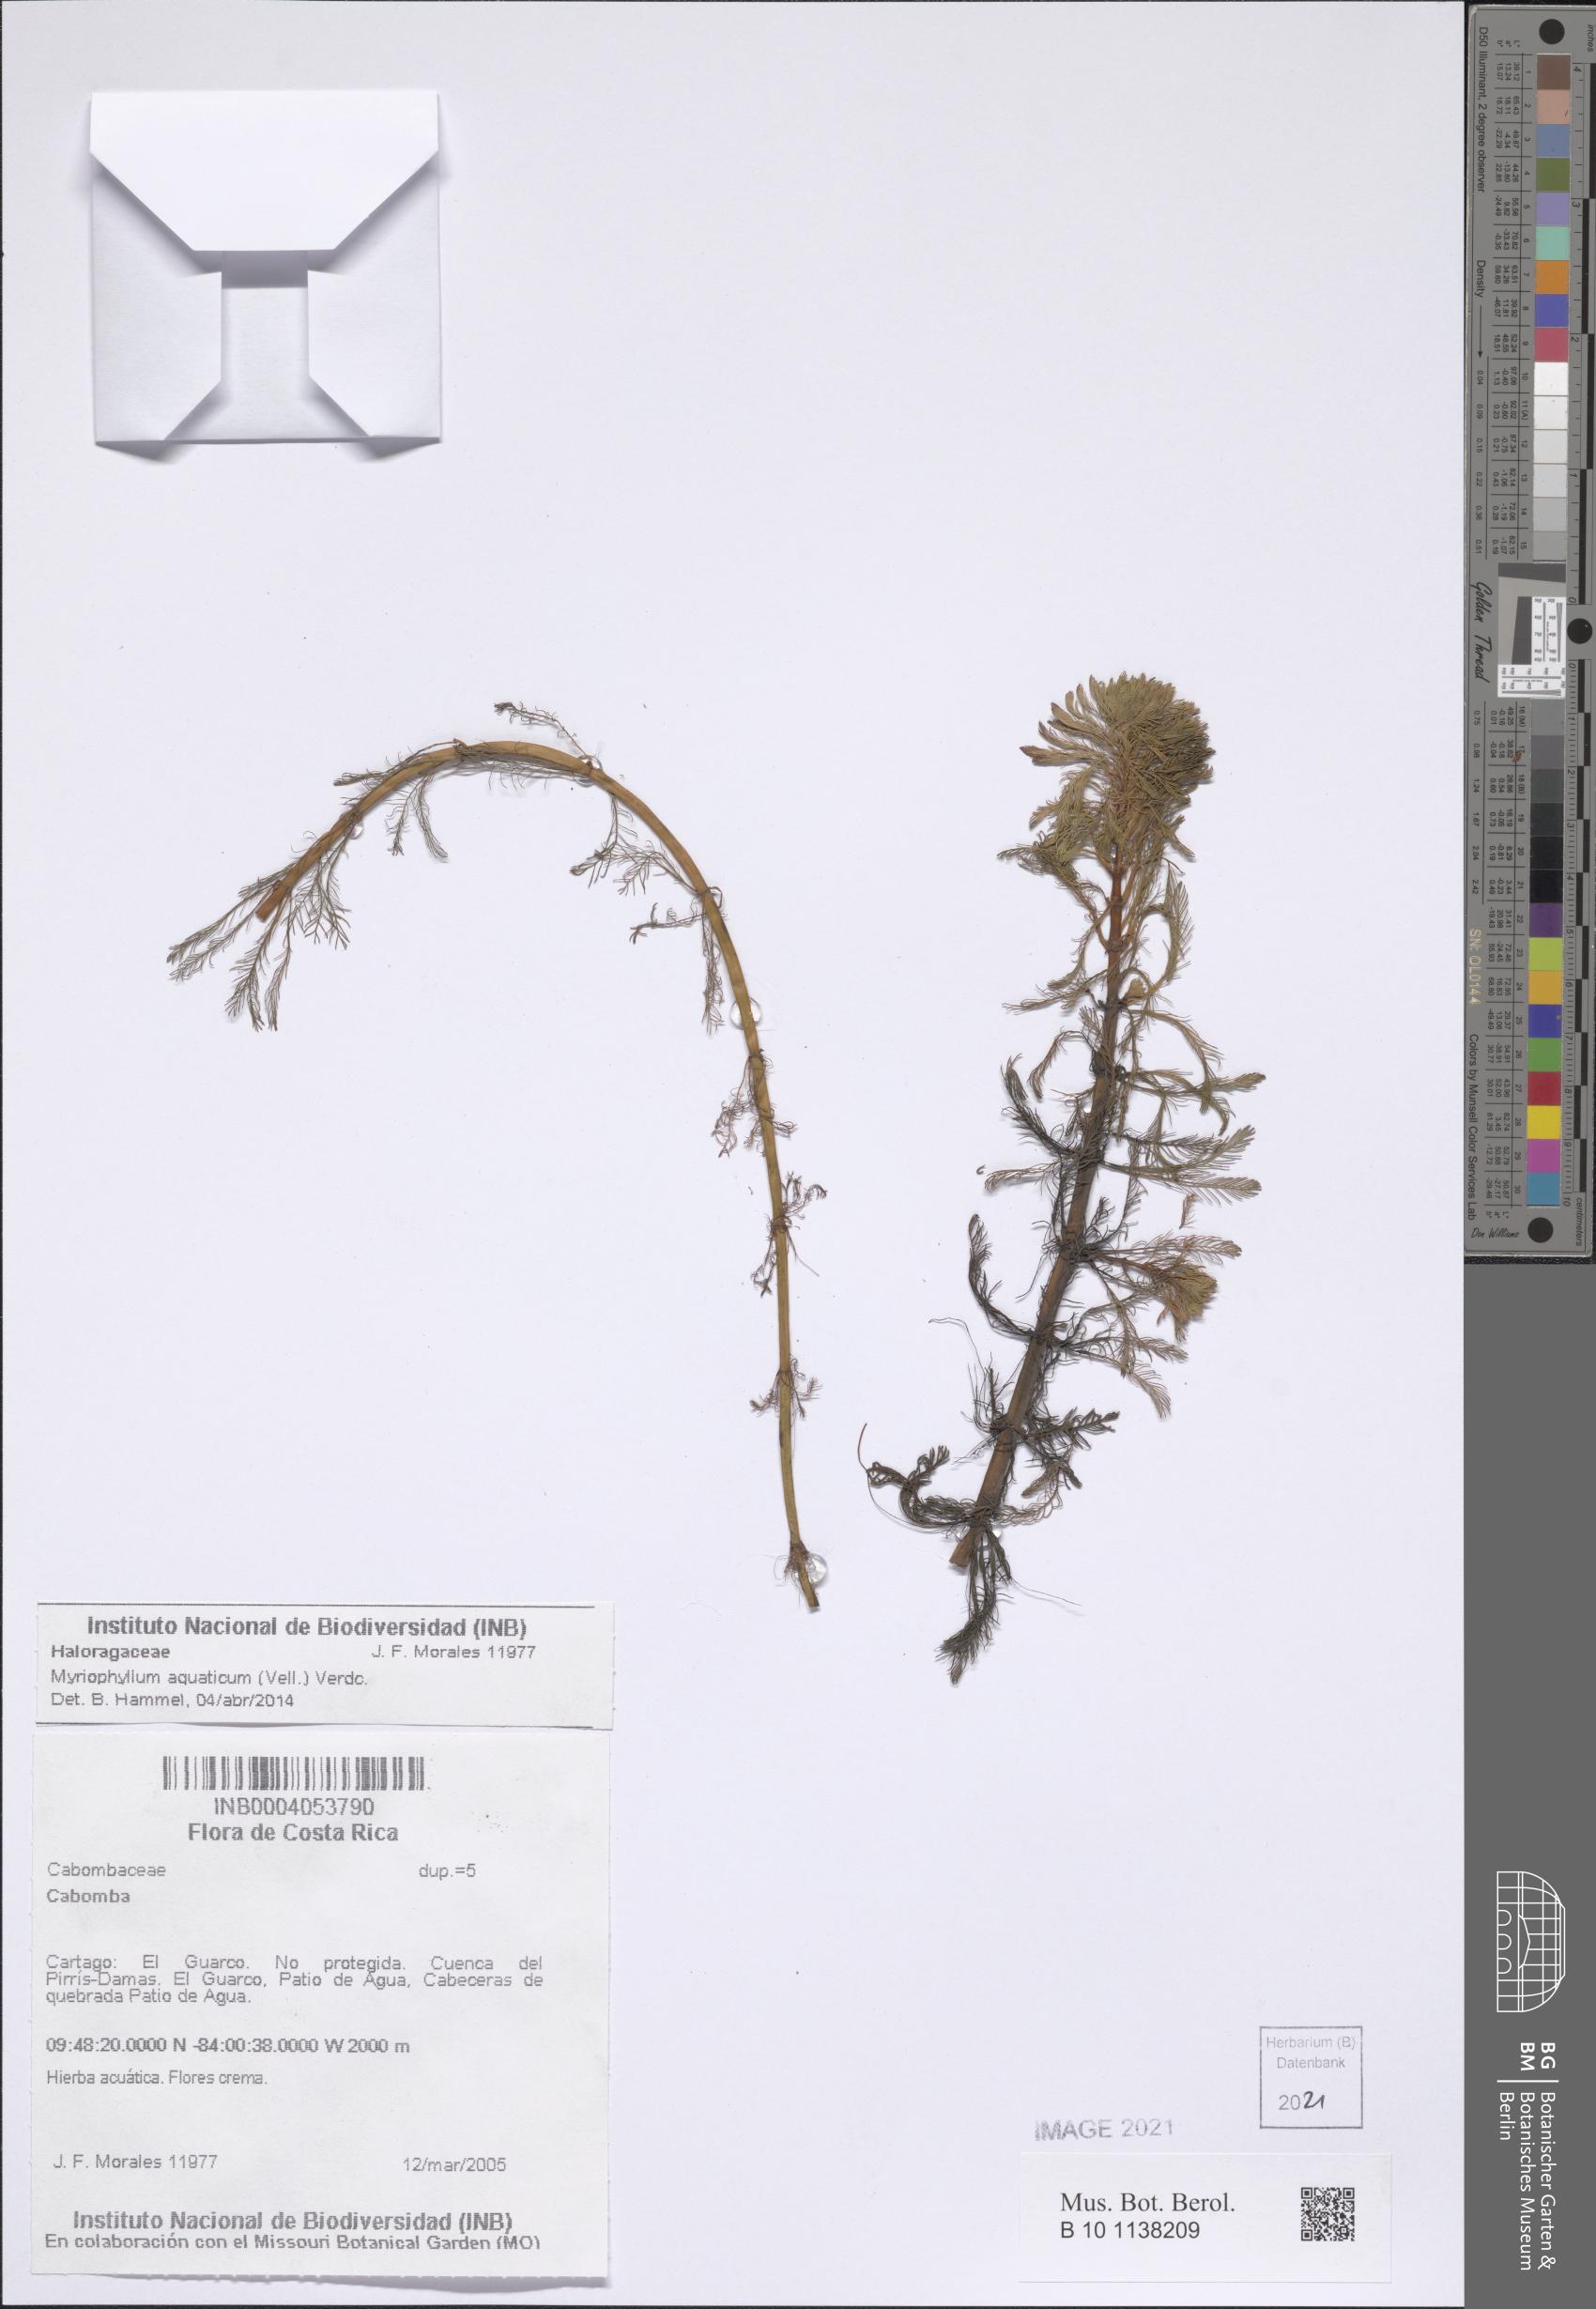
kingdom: Plantae
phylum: Tracheophyta
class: Magnoliopsida
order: Saxifragales
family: Haloragaceae
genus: Myriophyllum
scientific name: Myriophyllum aquaticum
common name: Parrot's feather
